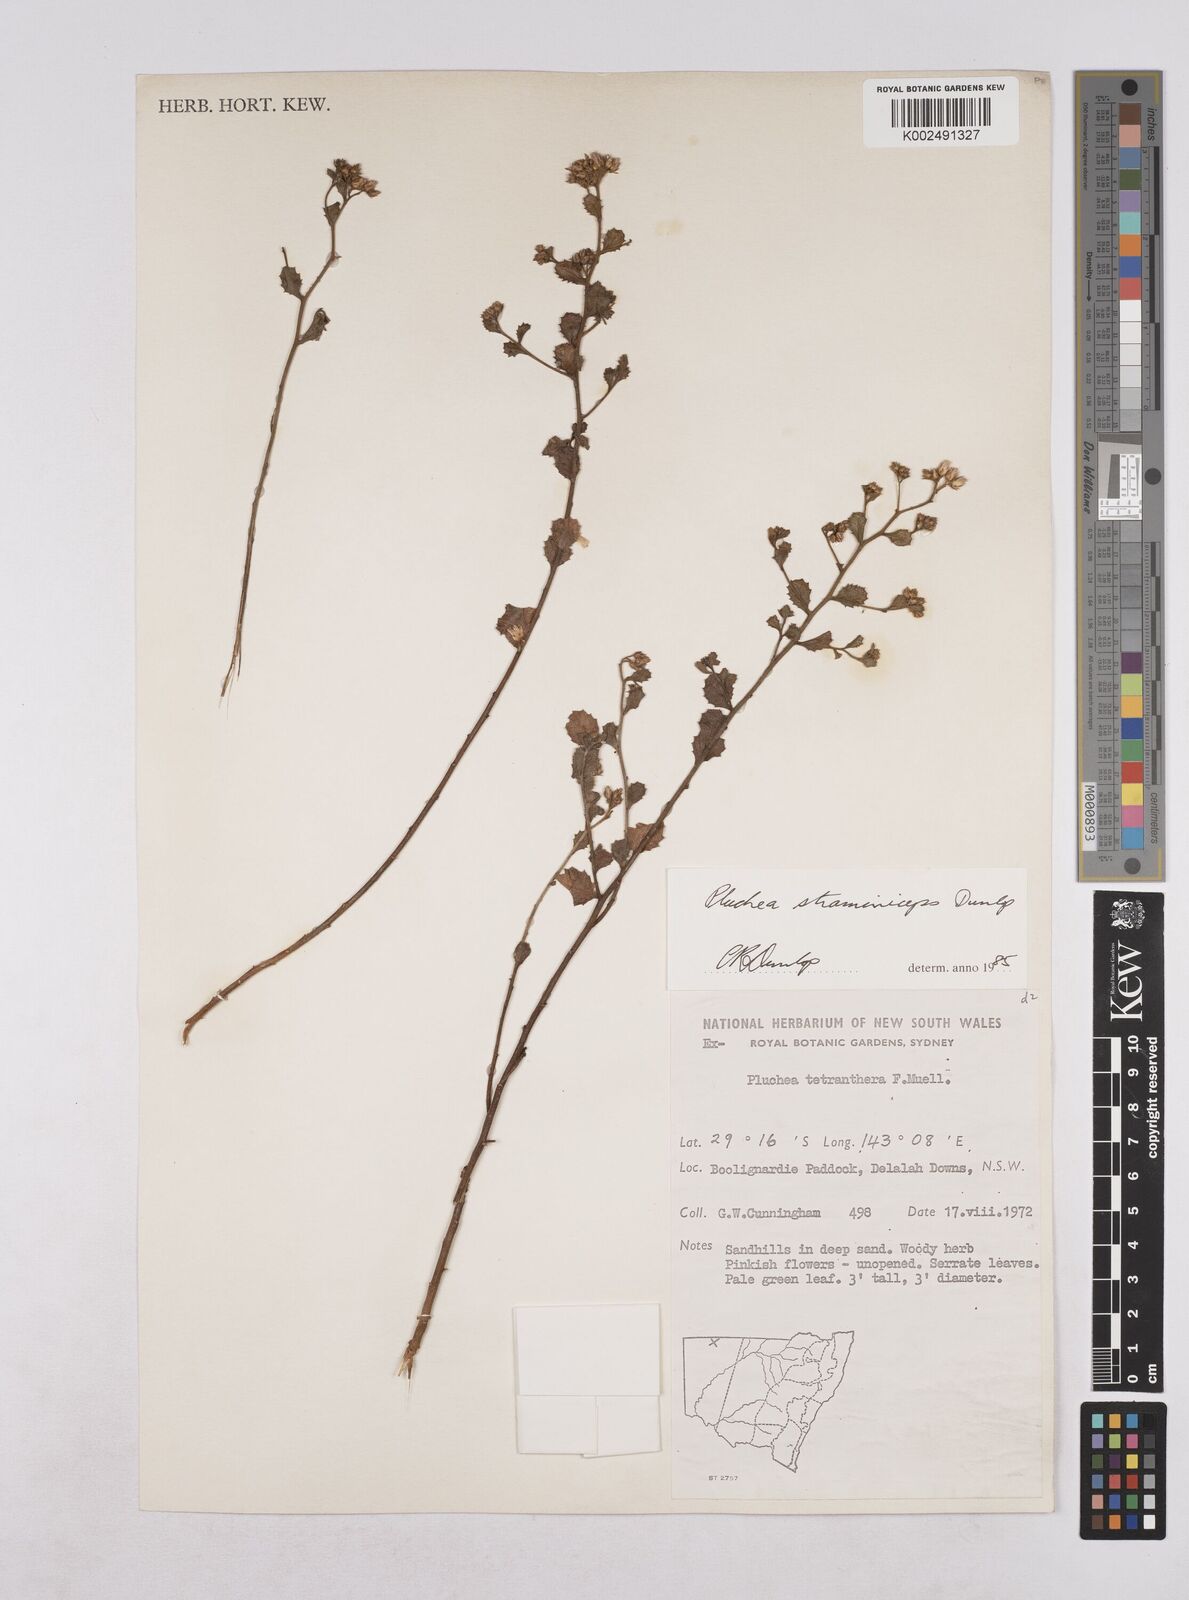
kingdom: Plantae
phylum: Tracheophyta
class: Magnoliopsida
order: Asterales
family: Asteraceae
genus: Pluchea
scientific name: Pluchea dunlopii
